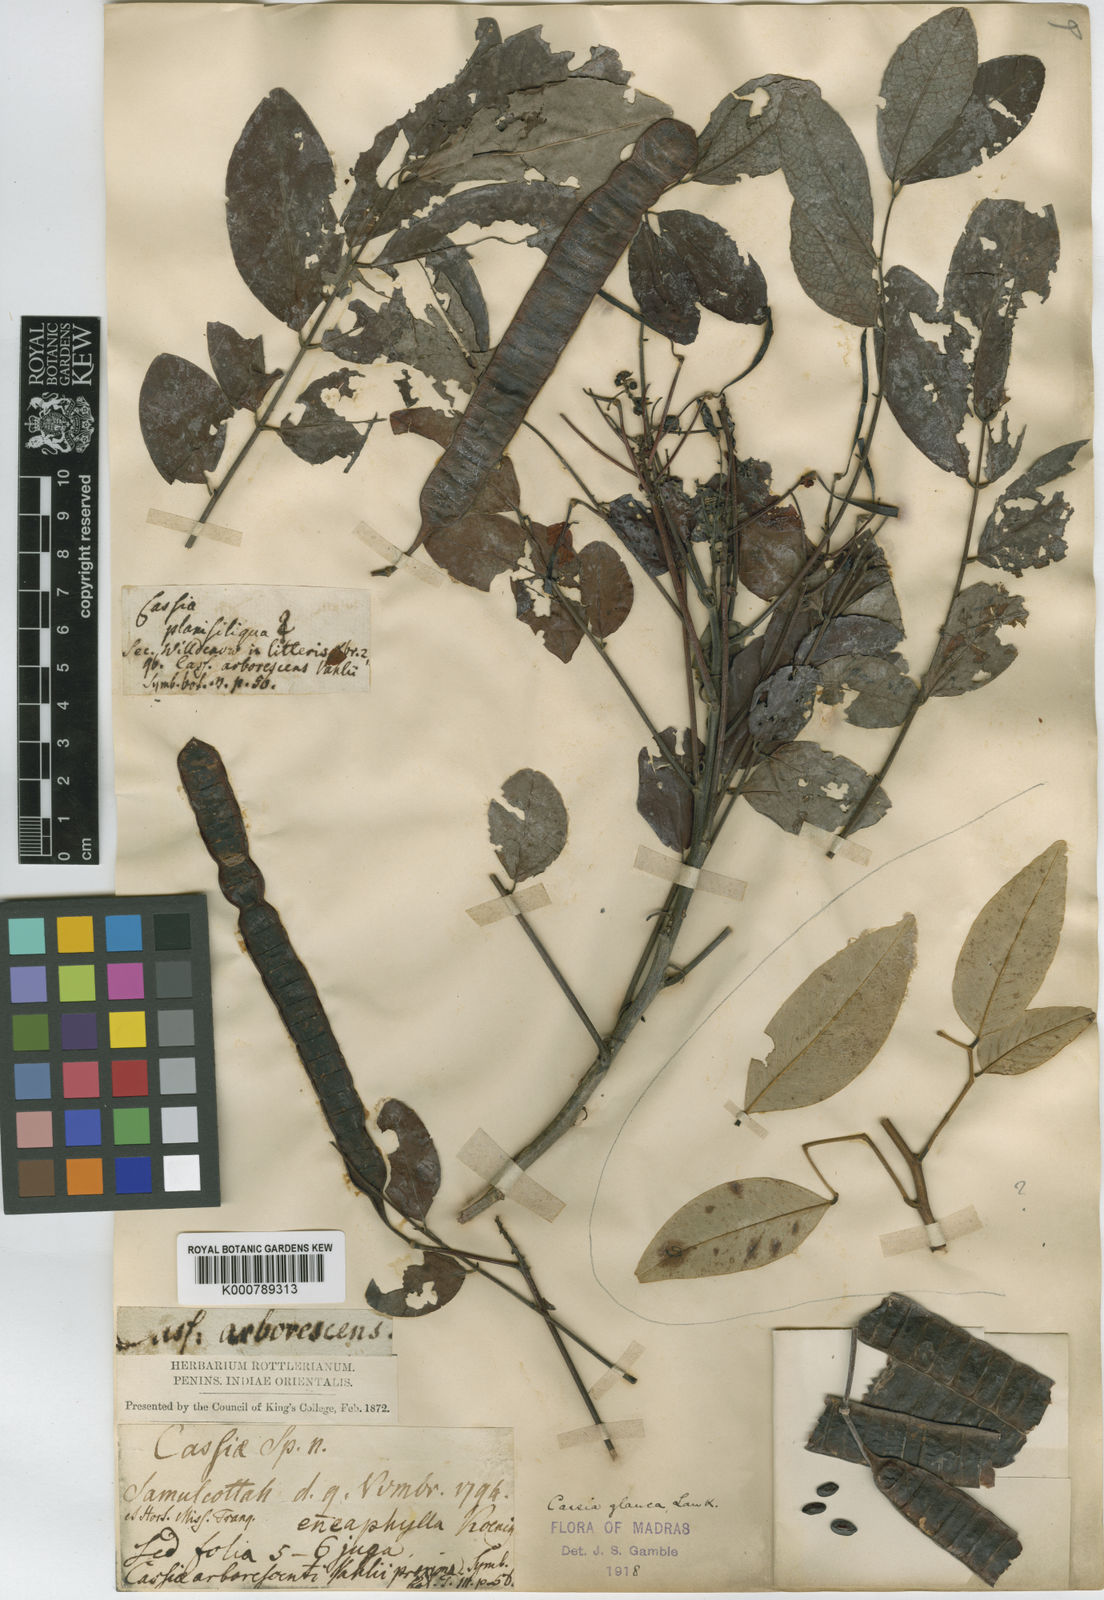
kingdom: Plantae
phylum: Tracheophyta
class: Magnoliopsida
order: Fabales
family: Fabaceae
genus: Senna
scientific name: Senna surattensis
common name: Glossy shower
